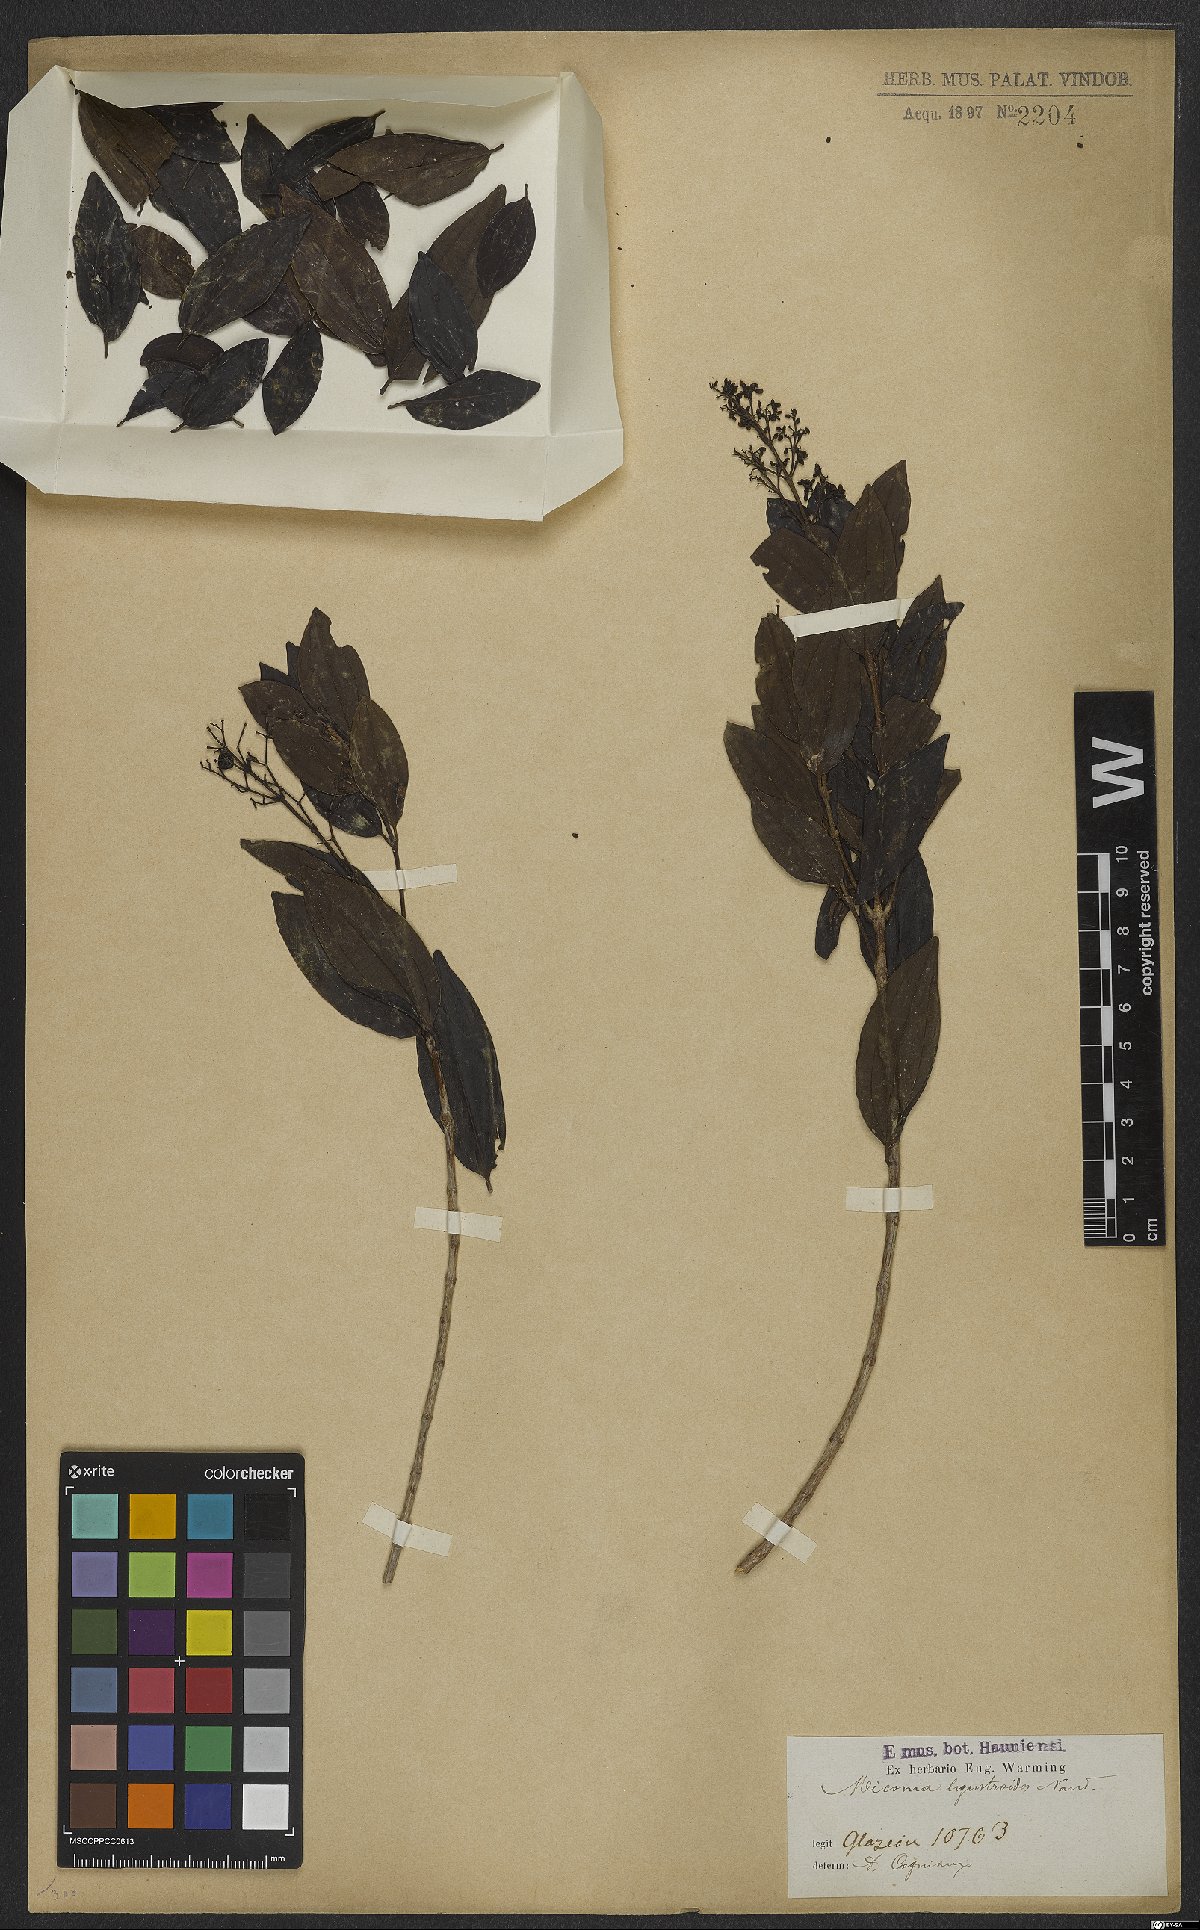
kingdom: Plantae
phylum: Tracheophyta
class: Magnoliopsida
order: Myrtales
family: Melastomataceae
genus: Miconia
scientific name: Miconia ligustroides
